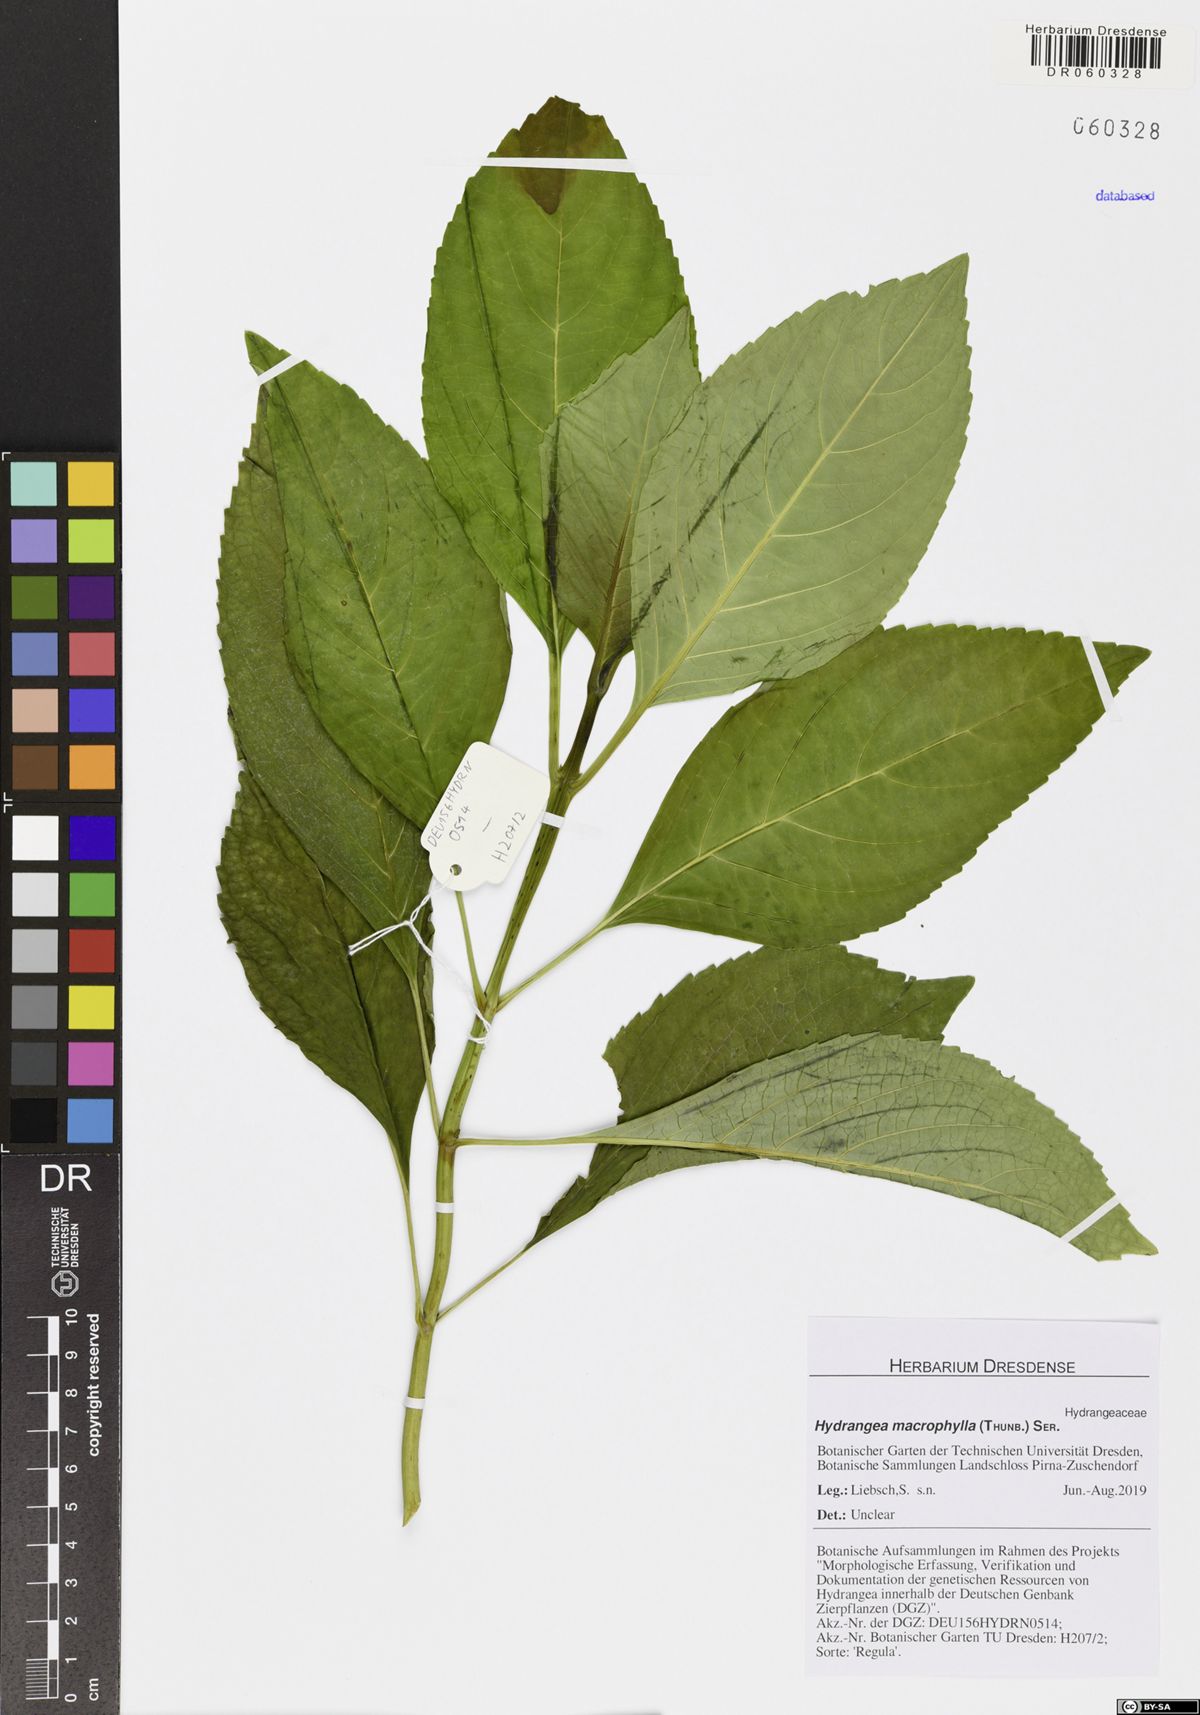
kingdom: Plantae
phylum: Tracheophyta
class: Magnoliopsida
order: Cornales
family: Hydrangeaceae
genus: Hydrangea
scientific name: Hydrangea macrophylla
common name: Hydrangea
